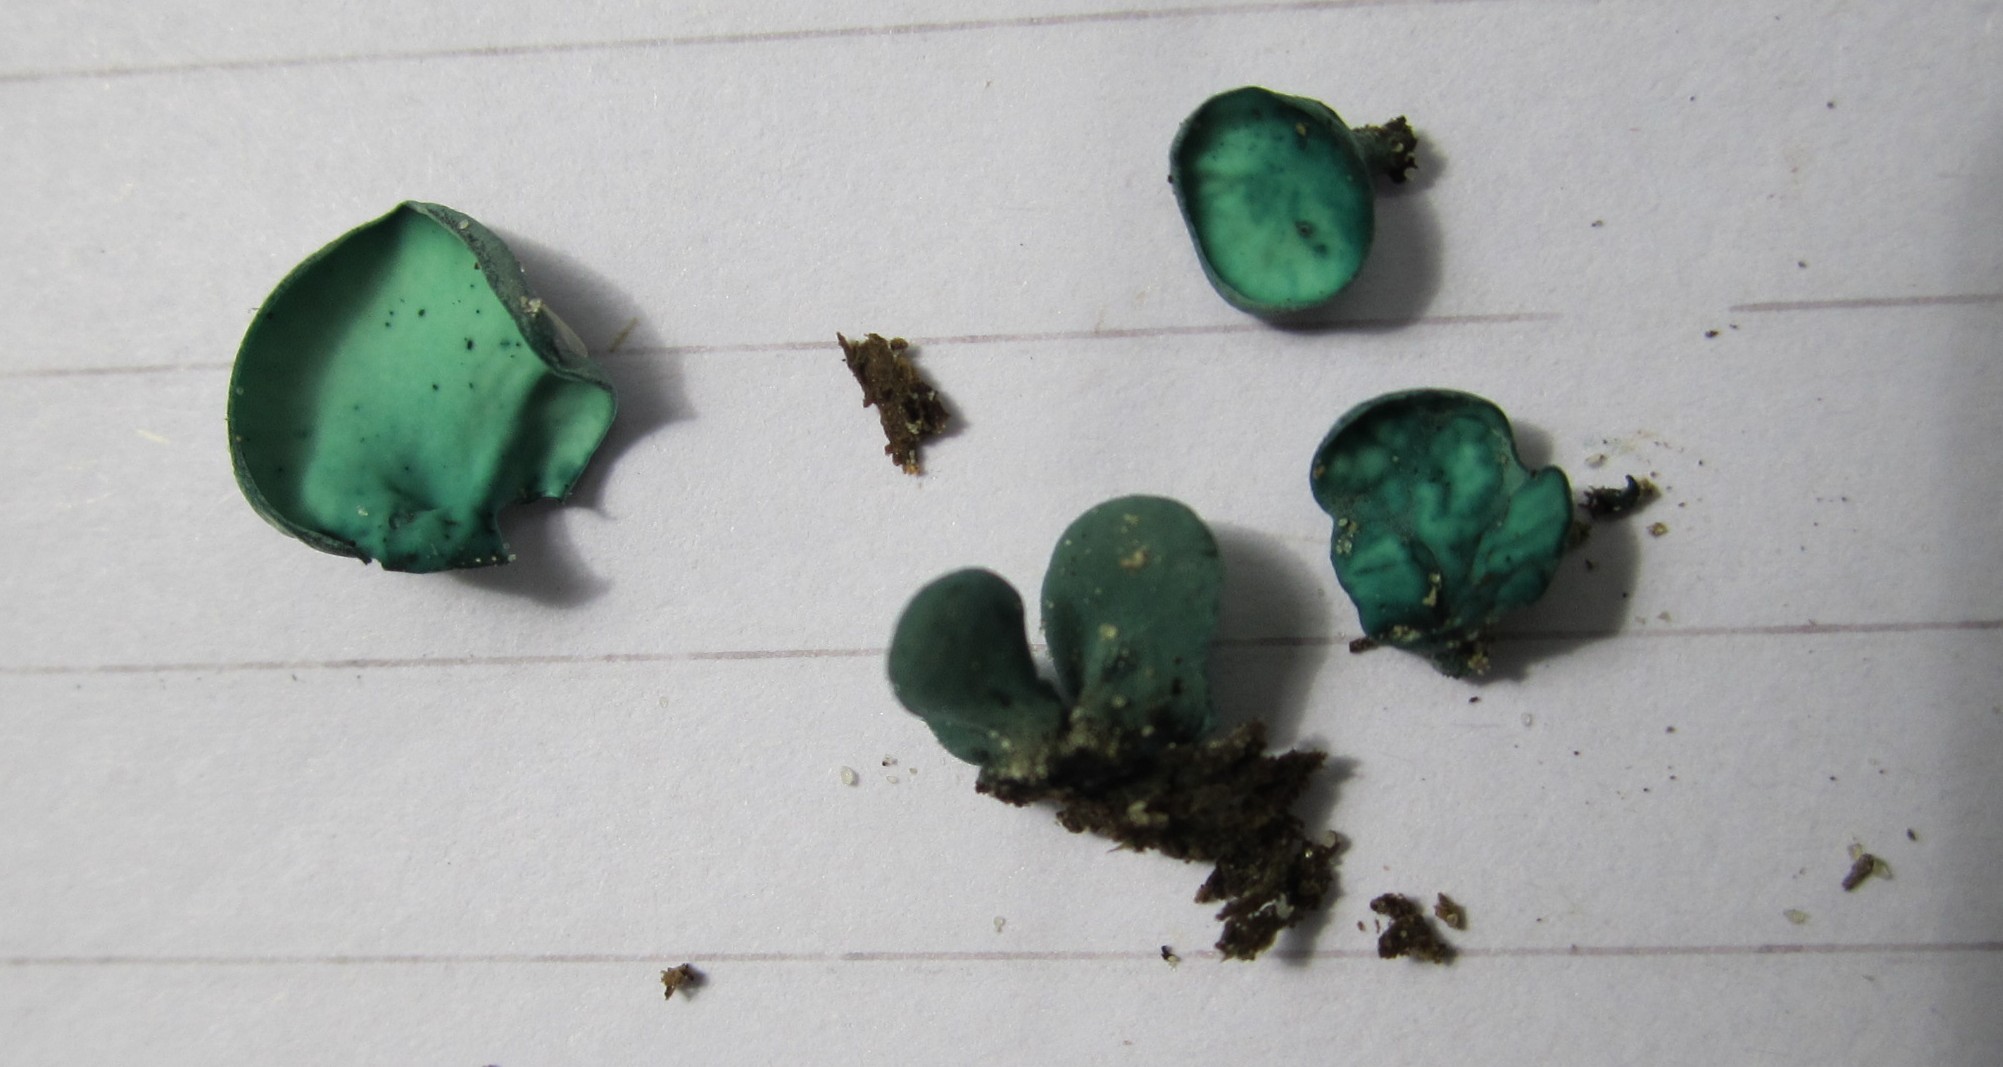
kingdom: Fungi
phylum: Ascomycota
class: Leotiomycetes
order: Helotiales
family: Chlorociboriaceae
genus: Chlorociboria
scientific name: Chlorociboria aeruginascens
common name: almindelig grønskive
